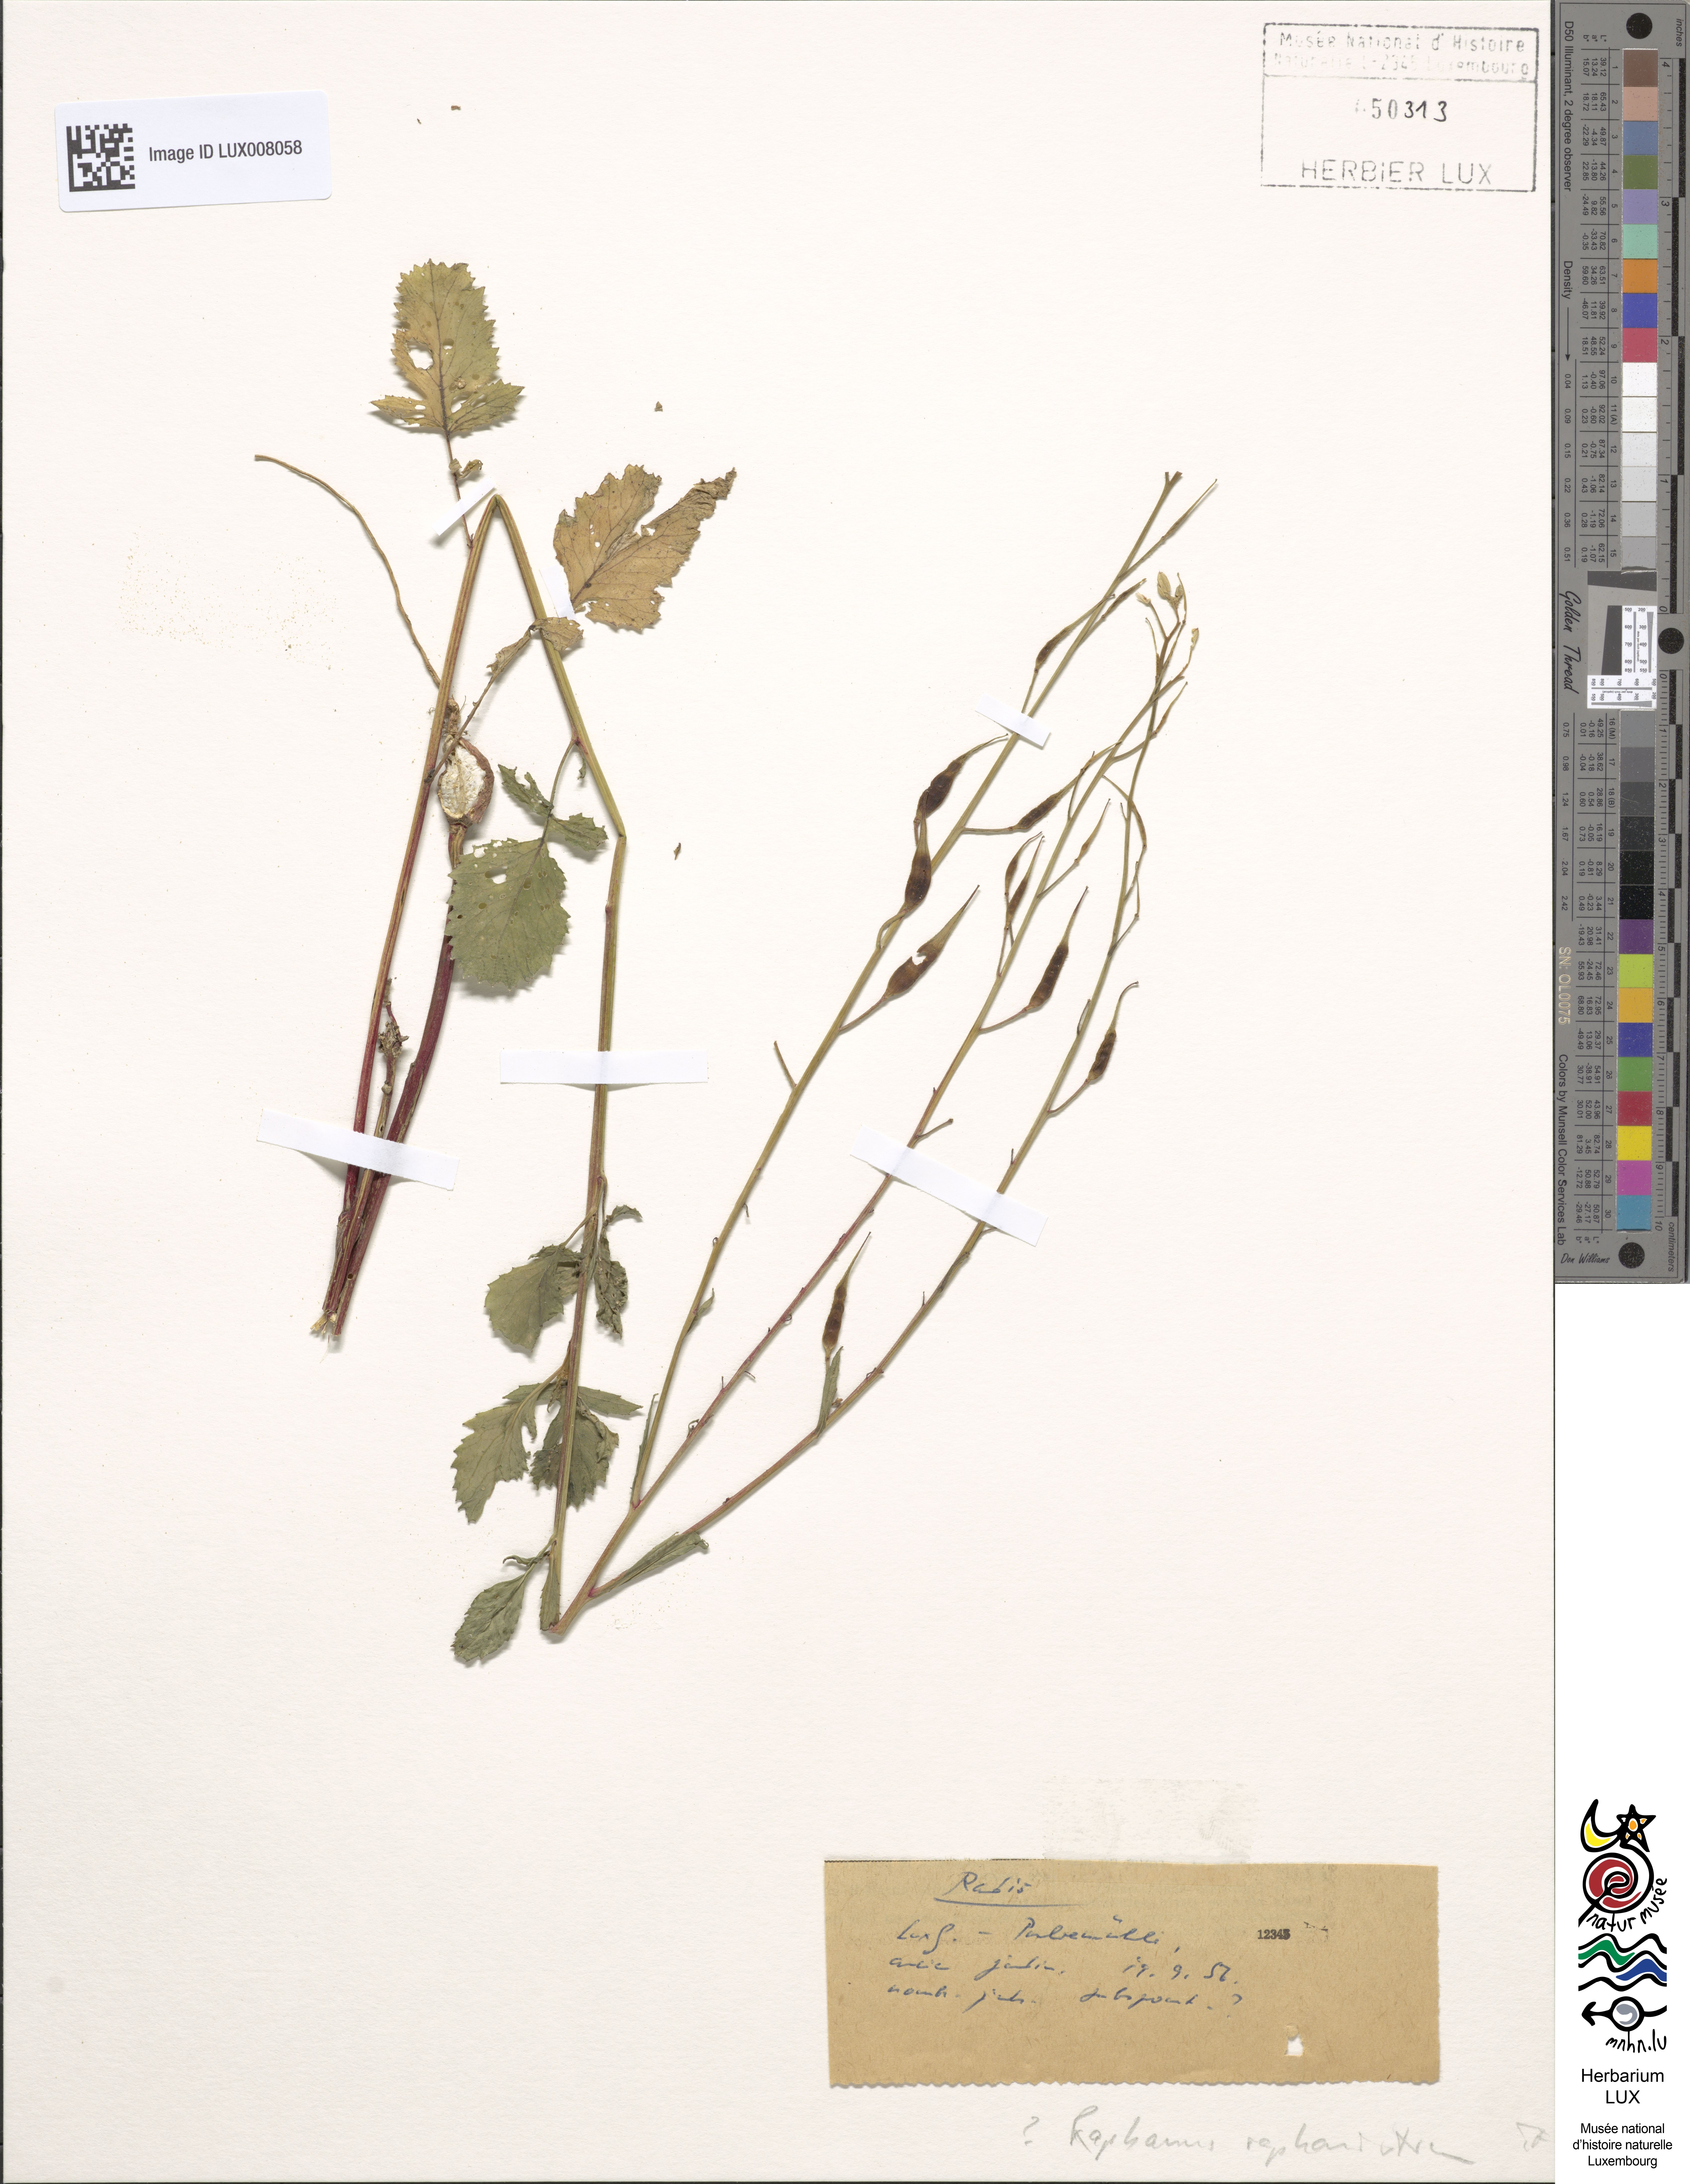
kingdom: Plantae
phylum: Tracheophyta
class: Magnoliopsida
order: Brassicales
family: Brassicaceae
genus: Raphanus
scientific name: Raphanus raphanistrum
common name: Wild radish
